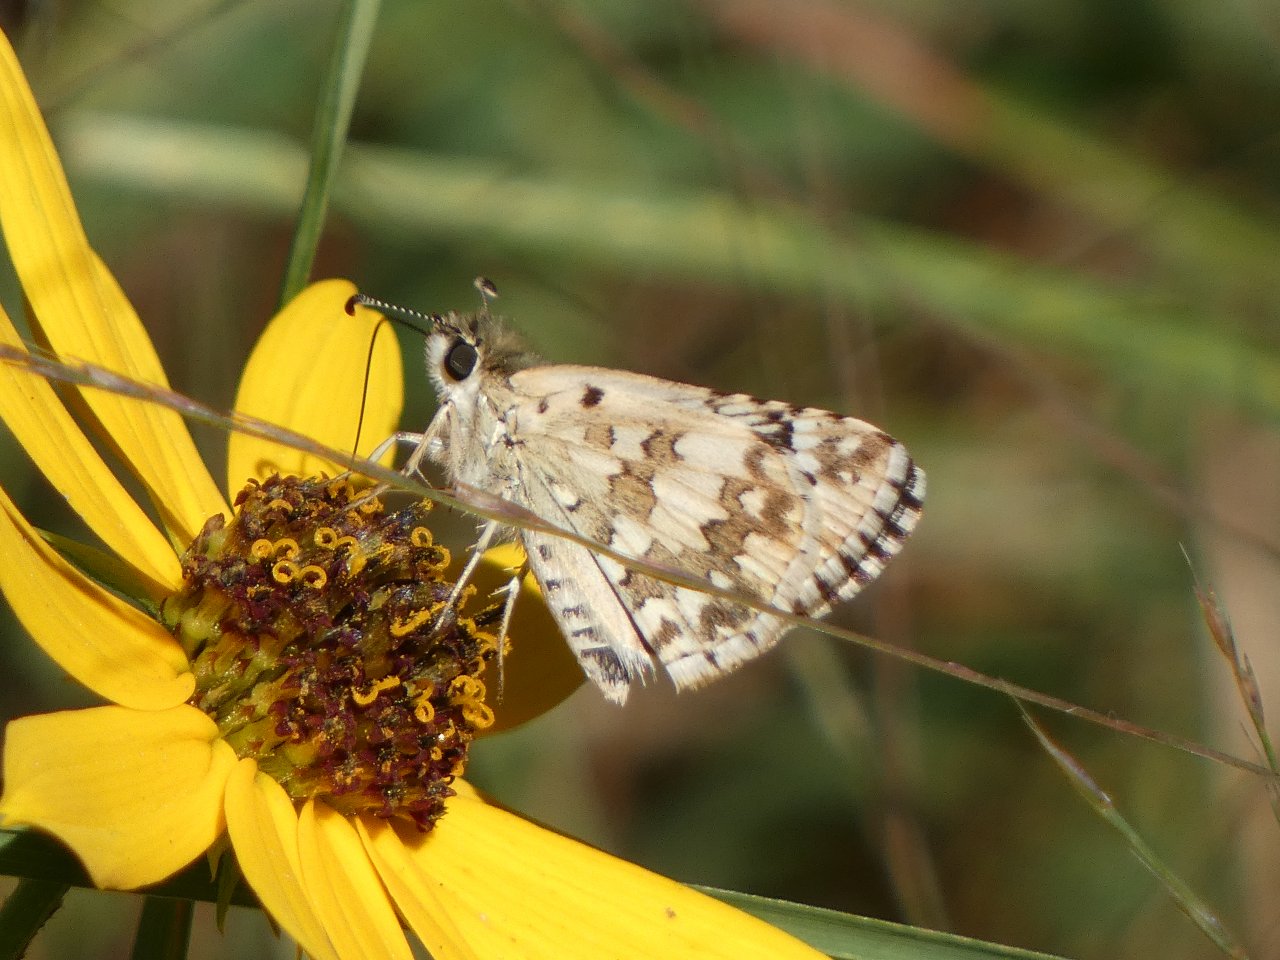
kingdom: Animalia
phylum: Arthropoda
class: Insecta
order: Lepidoptera
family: Hesperiidae
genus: Pyrgus
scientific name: Pyrgus communis
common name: Common Checkered-Skipper
